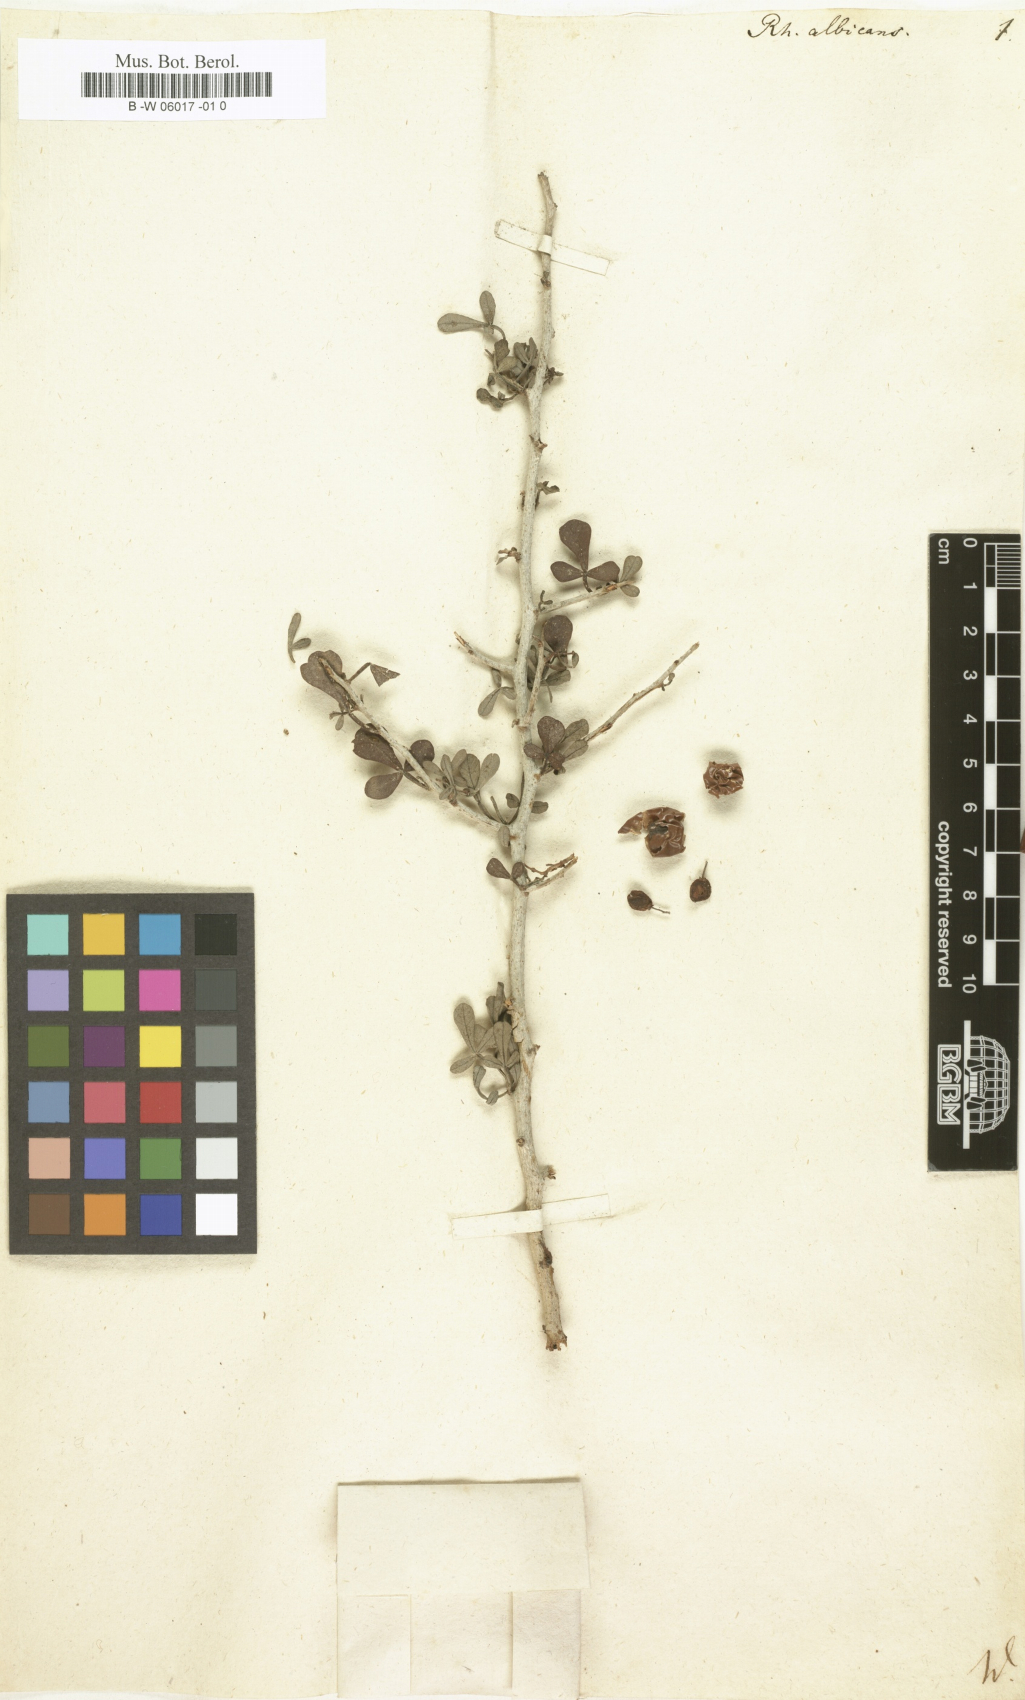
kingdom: Plantae
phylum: Tracheophyta
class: Magnoliopsida
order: Sapindales
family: Anacardiaceae
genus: Searsia
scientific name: Searsia tripartita
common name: Tripartite sumac
